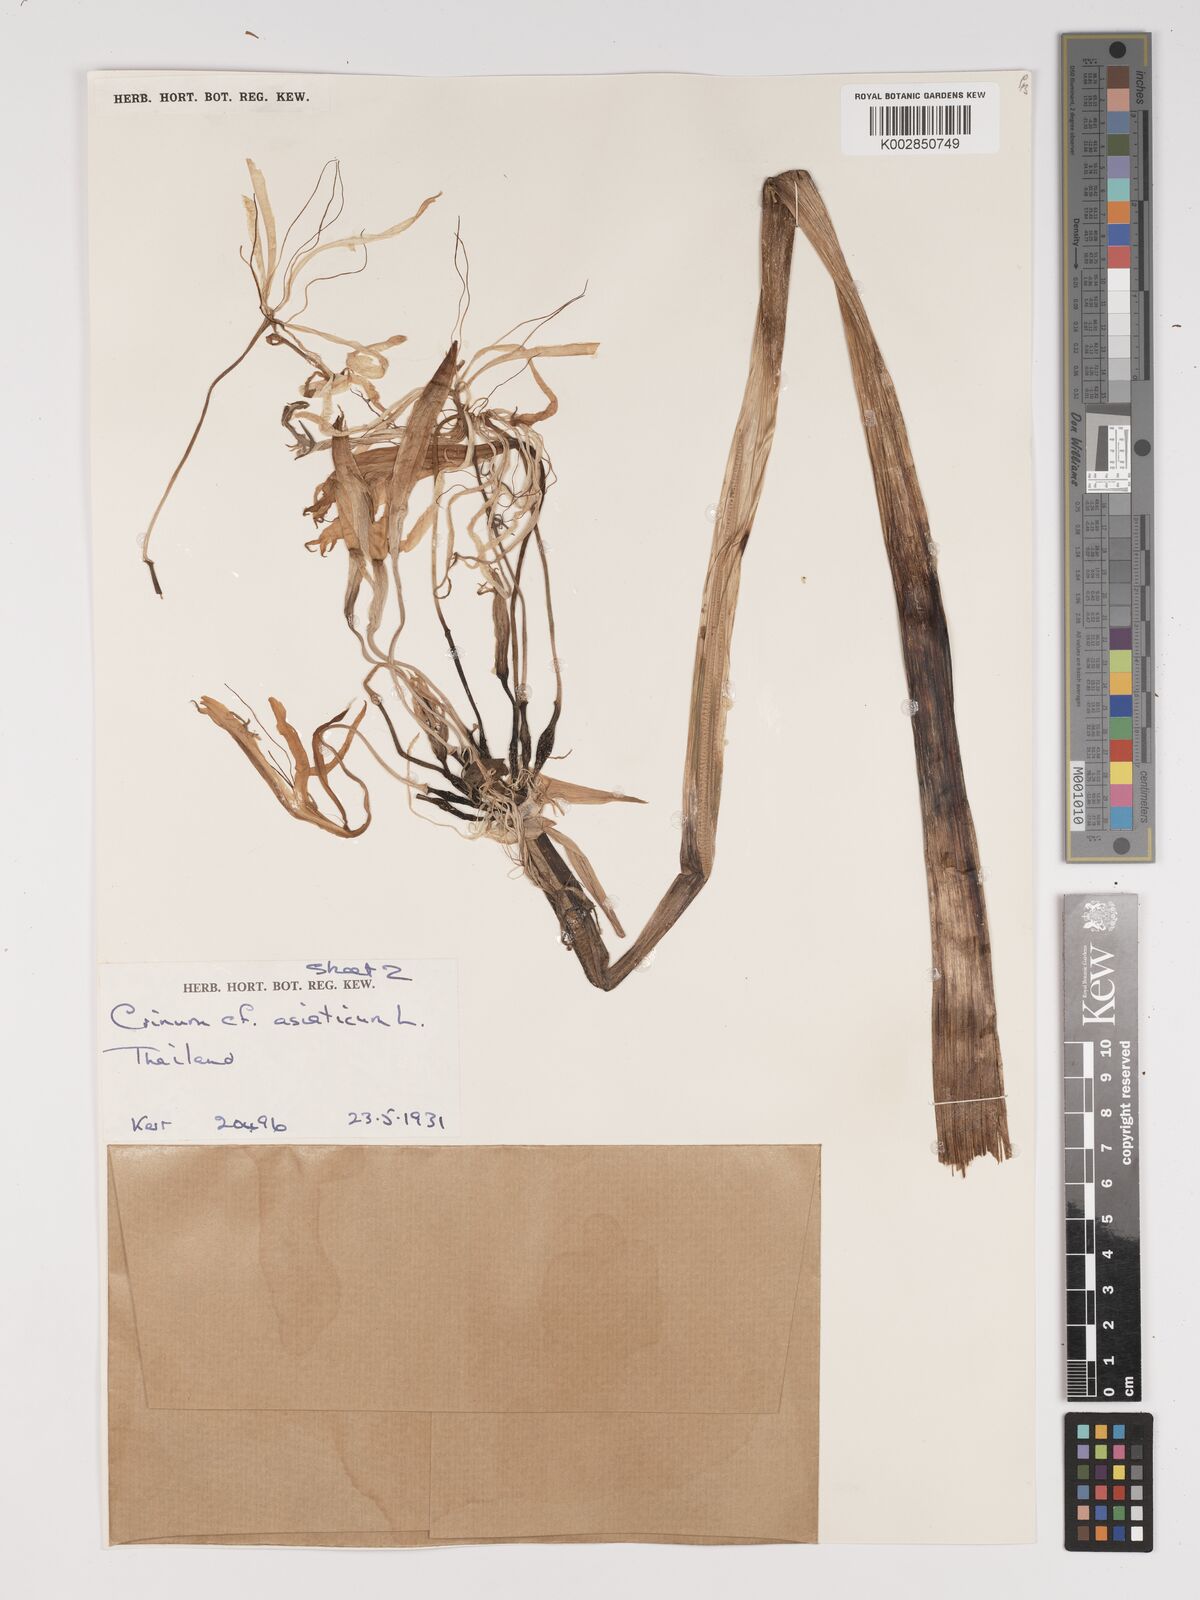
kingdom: Plantae
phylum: Tracheophyta
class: Liliopsida
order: Asparagales
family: Amaryllidaceae
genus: Crinum
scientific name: Crinum asiaticum
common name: Poisonbulb
